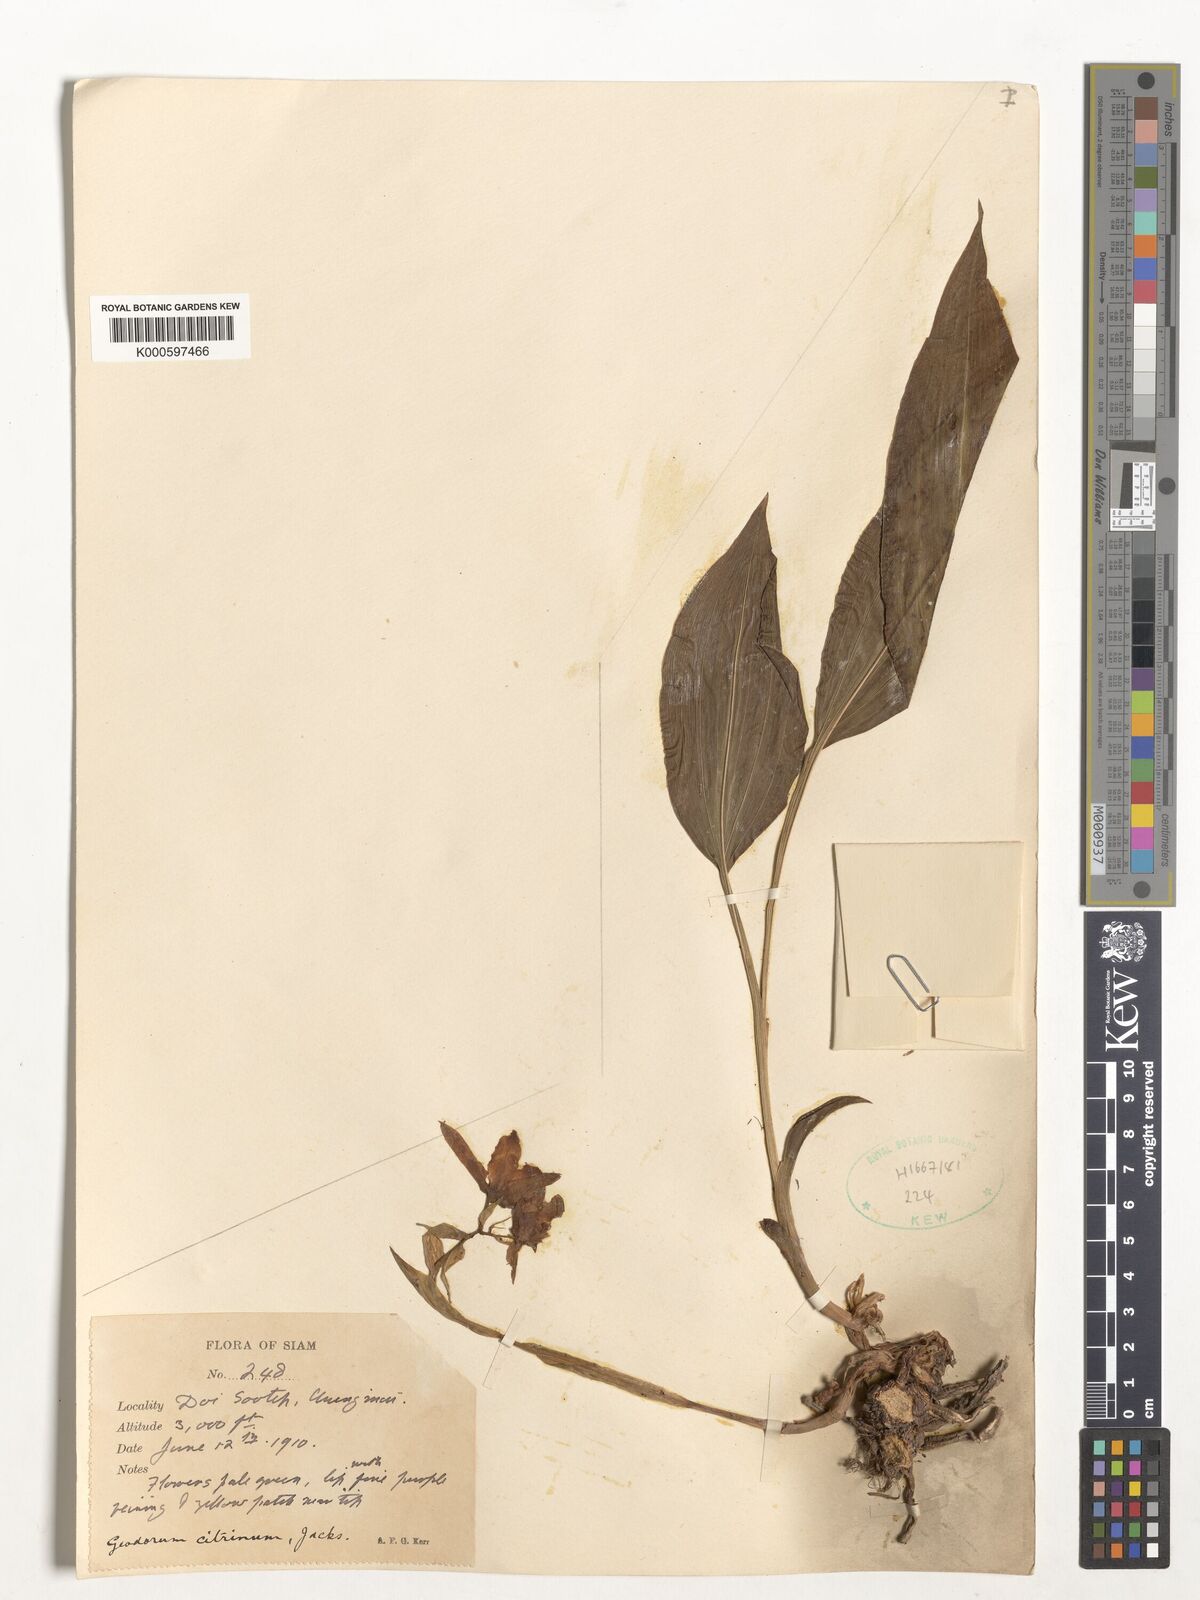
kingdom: Plantae
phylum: Tracheophyta
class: Liliopsida
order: Asparagales
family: Orchidaceae
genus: Geodorum
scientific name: Geodorum
